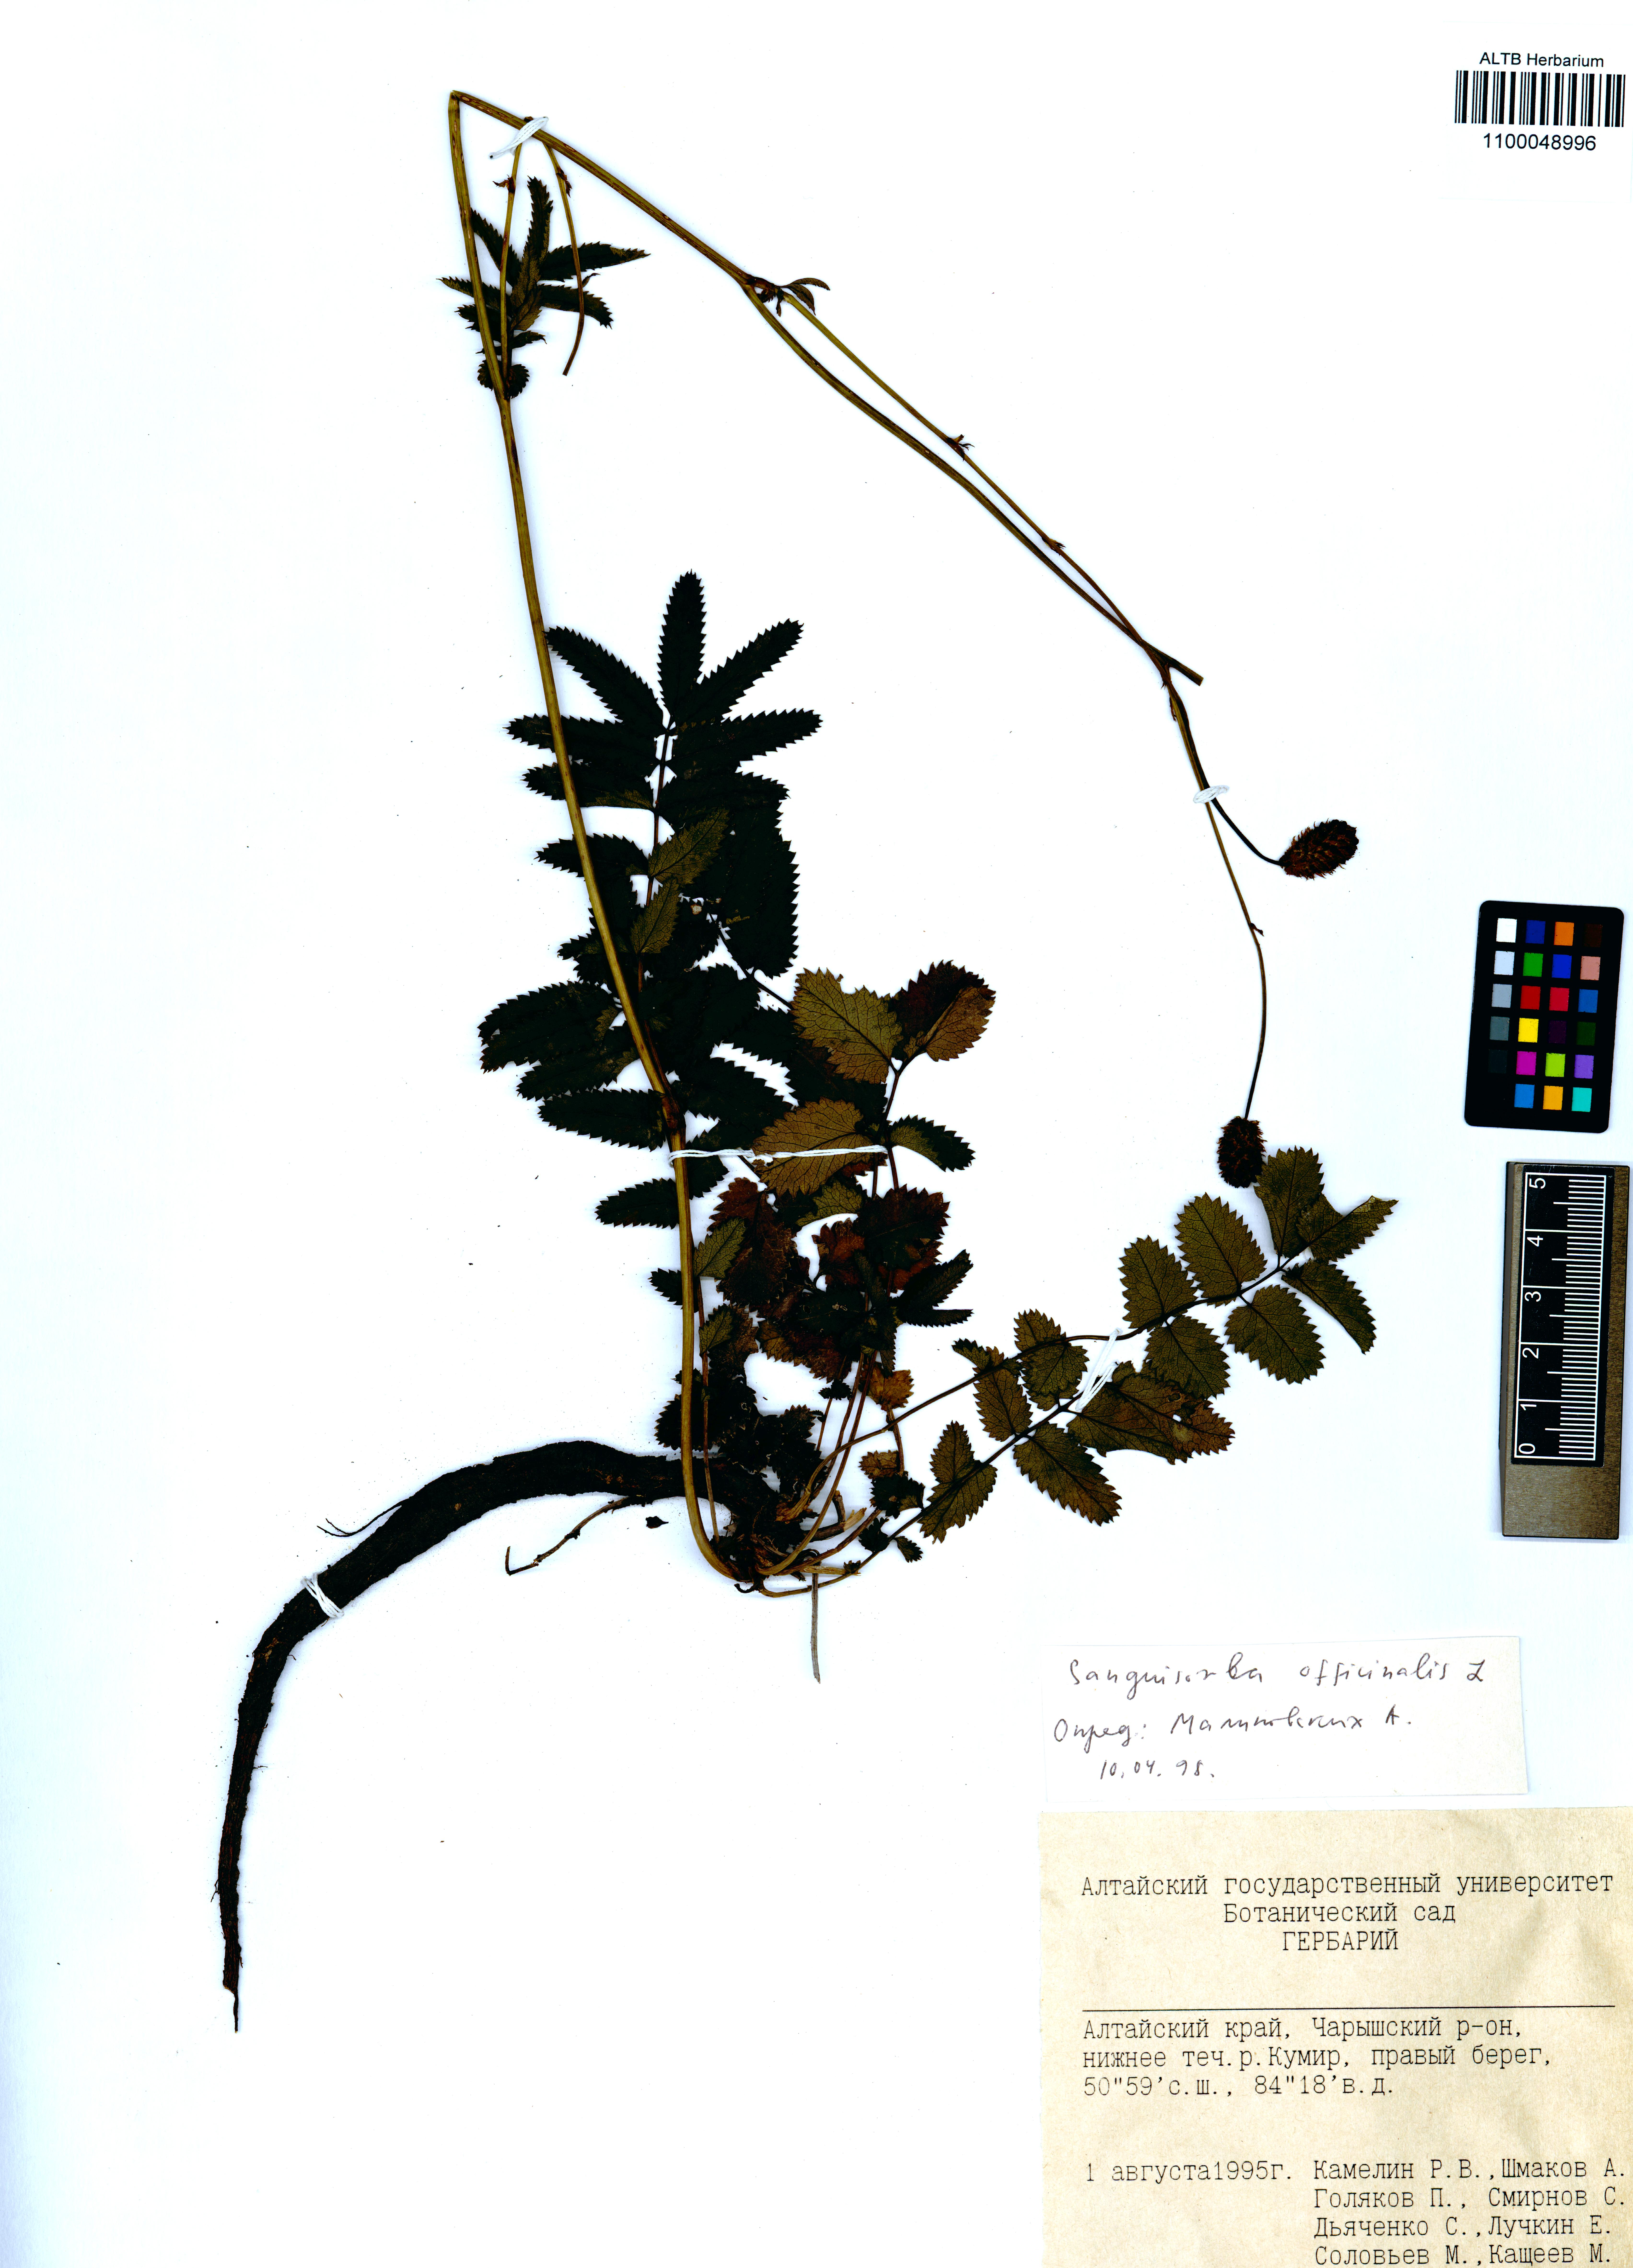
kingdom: Plantae
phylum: Tracheophyta
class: Magnoliopsida
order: Rosales
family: Rosaceae
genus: Sanguisorba
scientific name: Sanguisorba officinalis
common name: Great burnet
